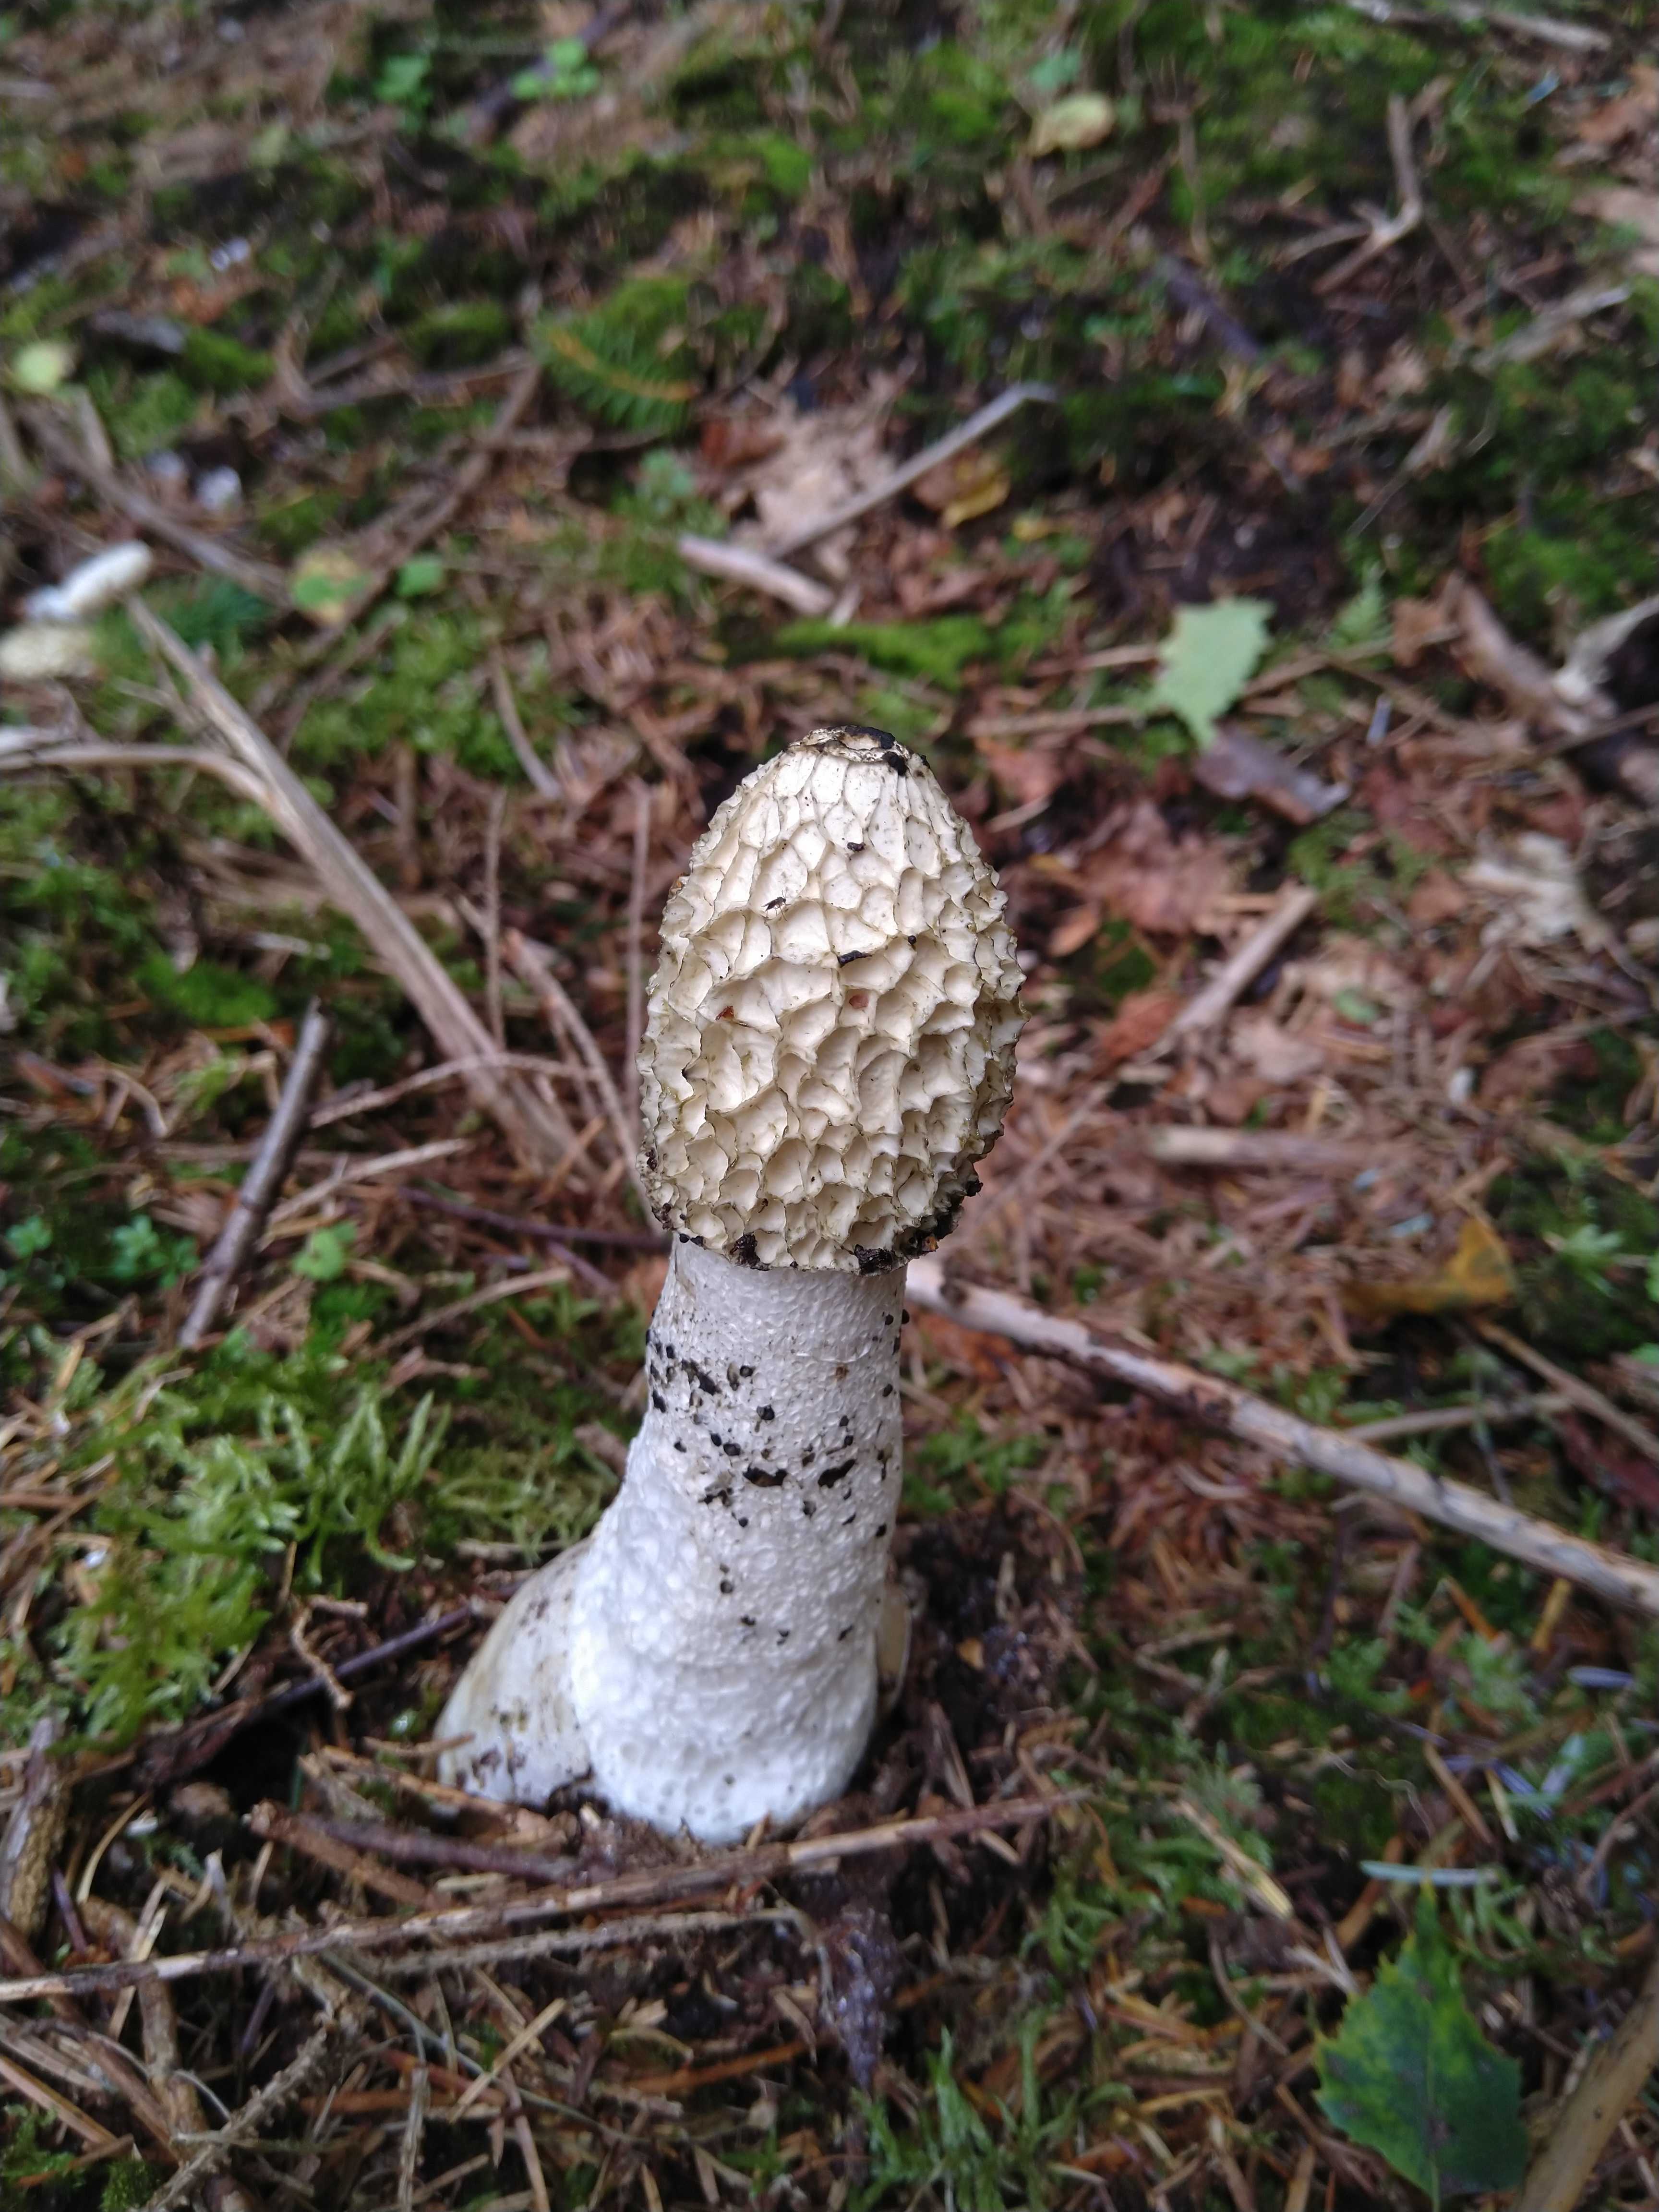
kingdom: Fungi
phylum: Basidiomycota
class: Agaricomycetes
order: Phallales
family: Phallaceae
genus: Phallus
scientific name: Phallus impudicus
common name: almindelig stinksvamp
